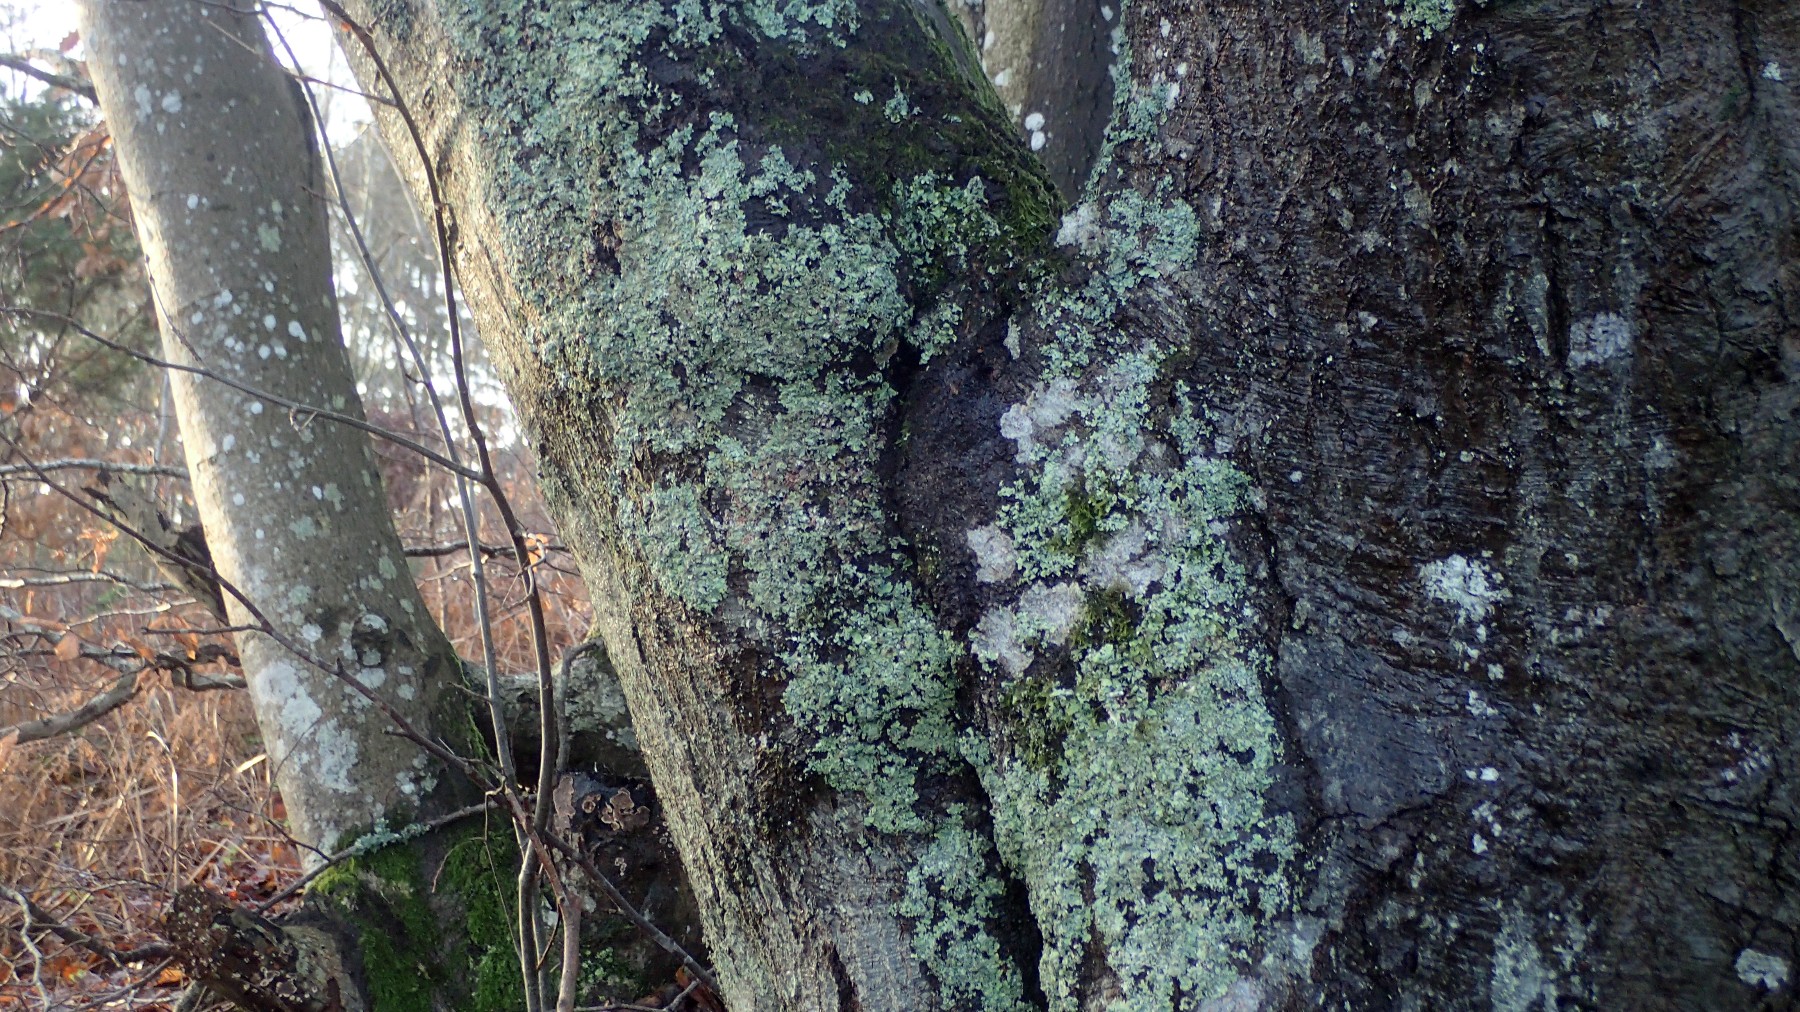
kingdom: Fungi
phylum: Ascomycota
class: Lecanoromycetes
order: Lecanorales
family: Parmeliaceae
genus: Parmelia
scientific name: Parmelia ernstiae
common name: rimstift-skållav
